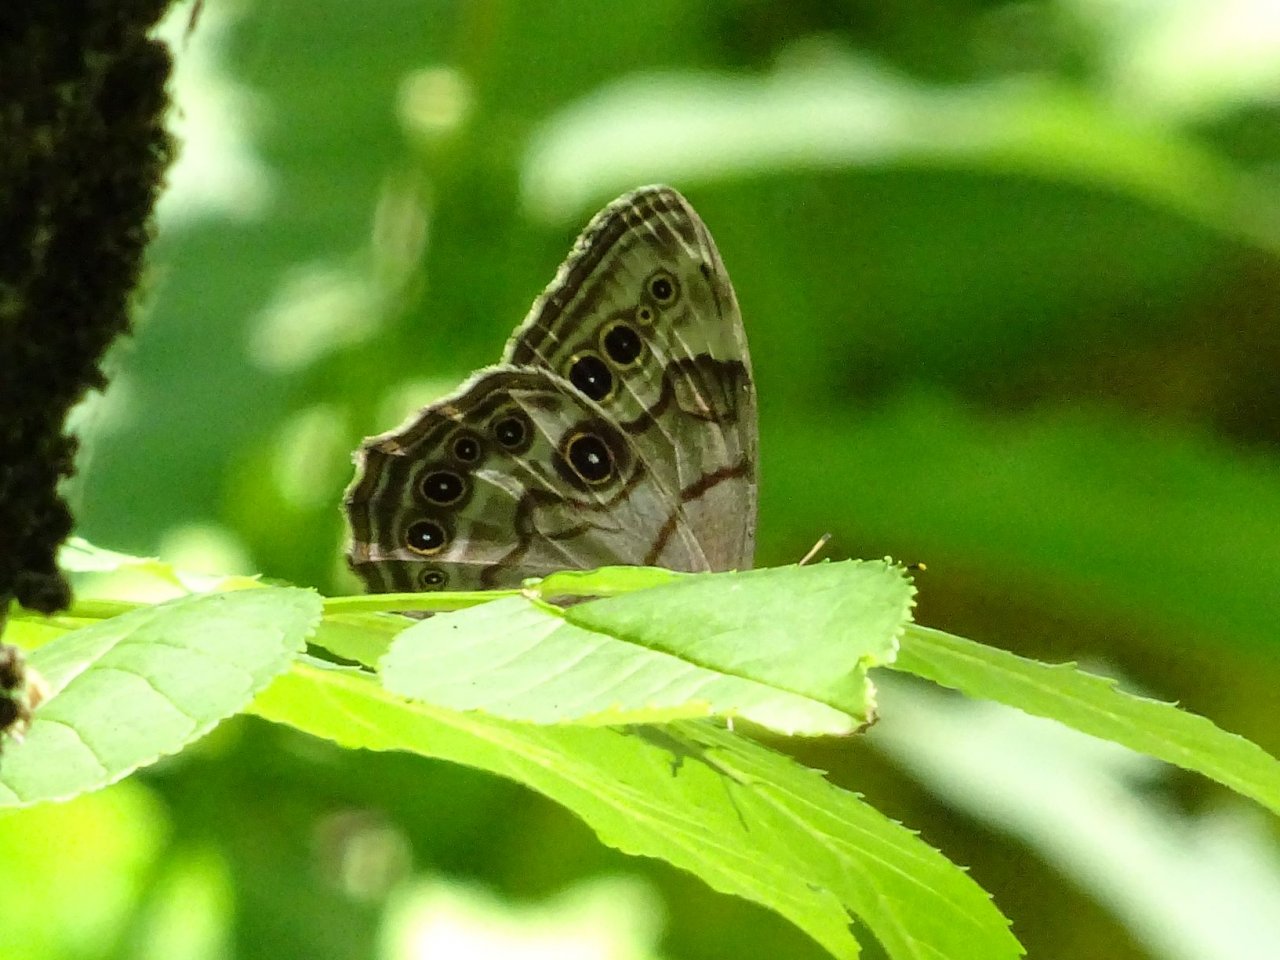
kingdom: Animalia
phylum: Arthropoda
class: Insecta
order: Lepidoptera
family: Nymphalidae
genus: Lethe
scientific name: Lethe anthedon
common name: Northern Pearly-Eye
